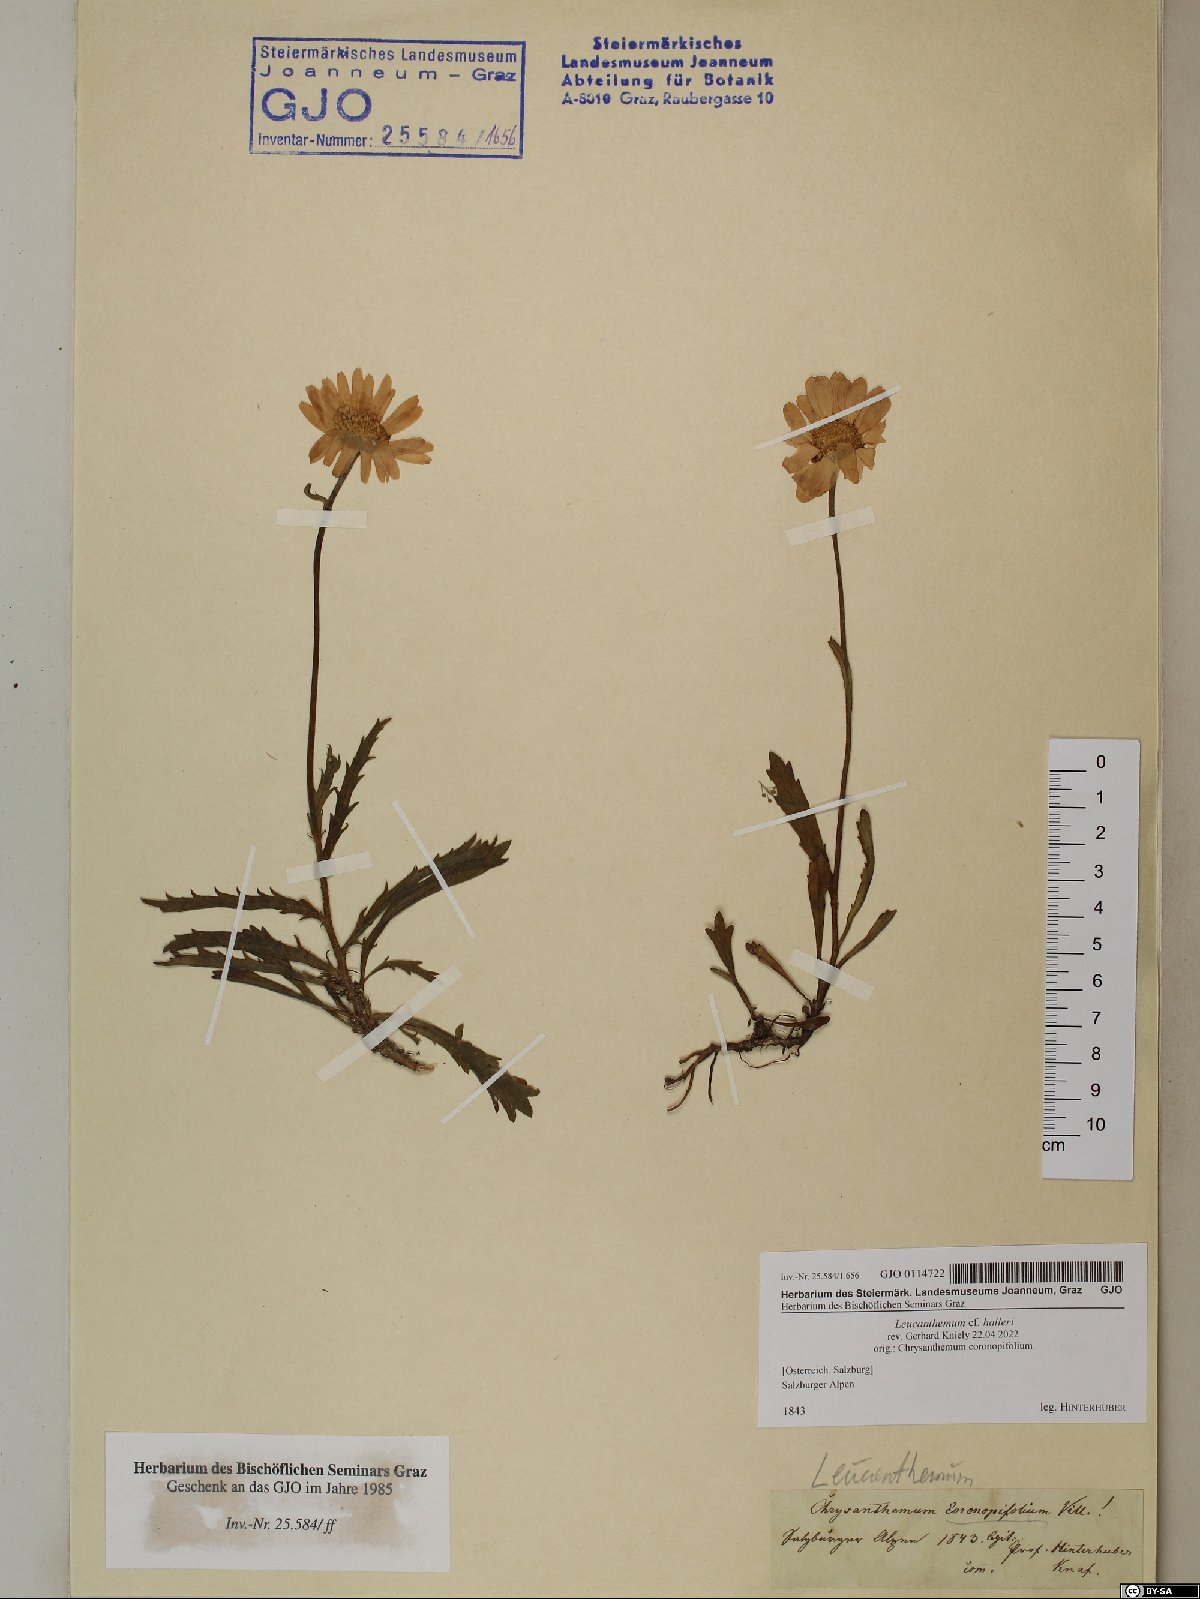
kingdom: Plantae
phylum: Tracheophyta
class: Magnoliopsida
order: Asterales
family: Asteraceae
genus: Leucanthemum
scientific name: Leucanthemum halleri
